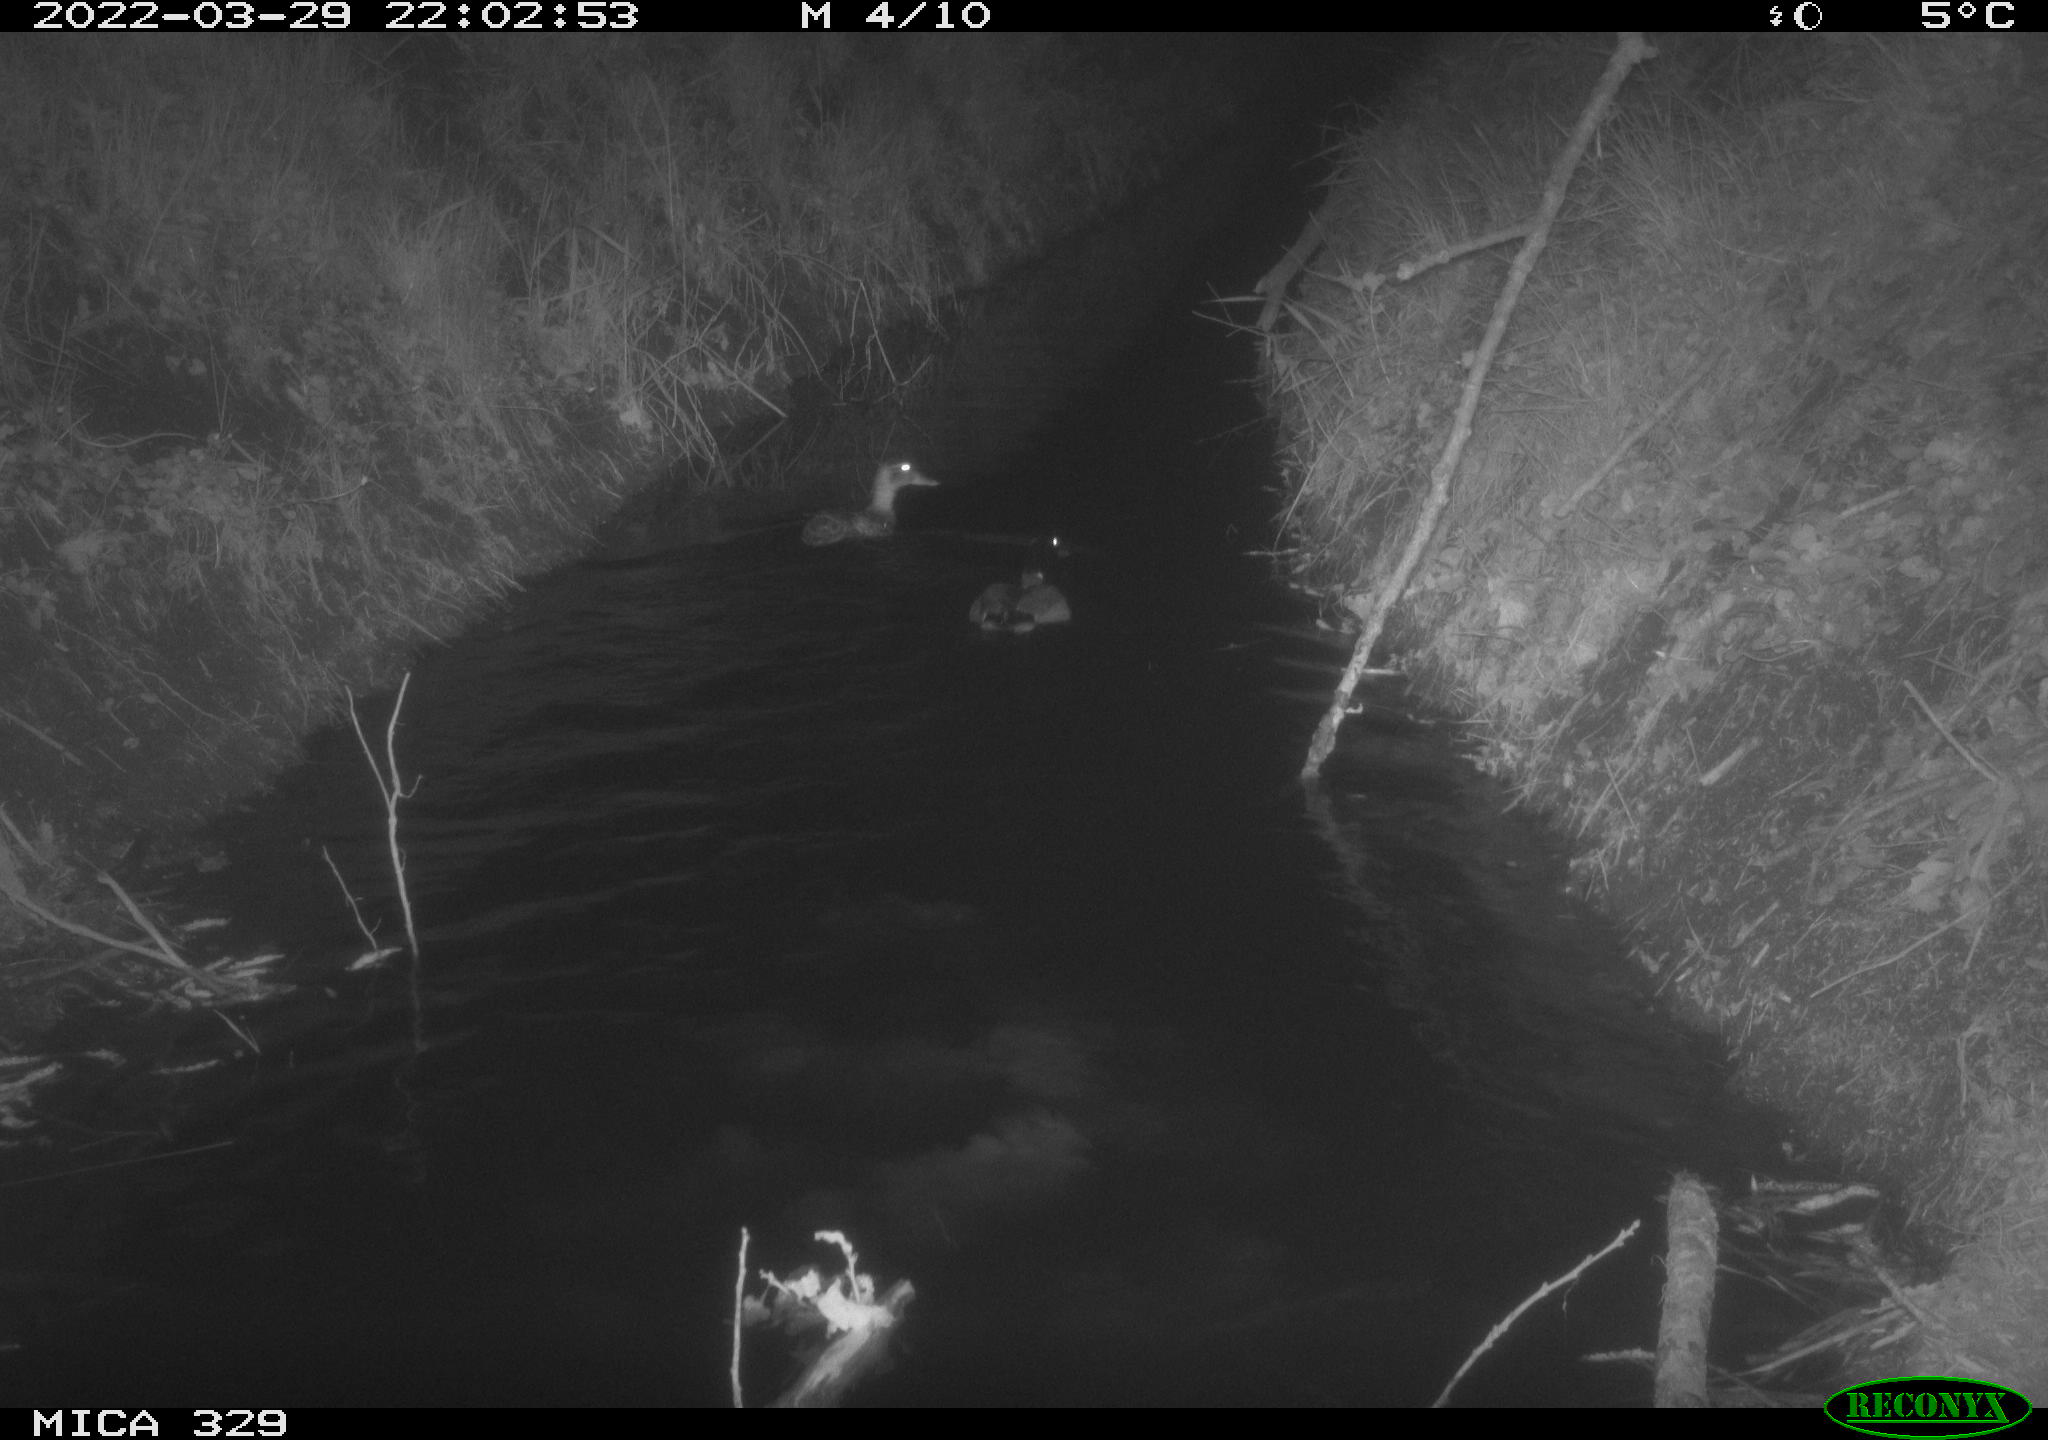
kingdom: Animalia
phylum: Chordata
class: Mammalia
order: Rodentia
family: Cricetidae
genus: Ondatra
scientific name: Ondatra zibethicus
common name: Muskrat
